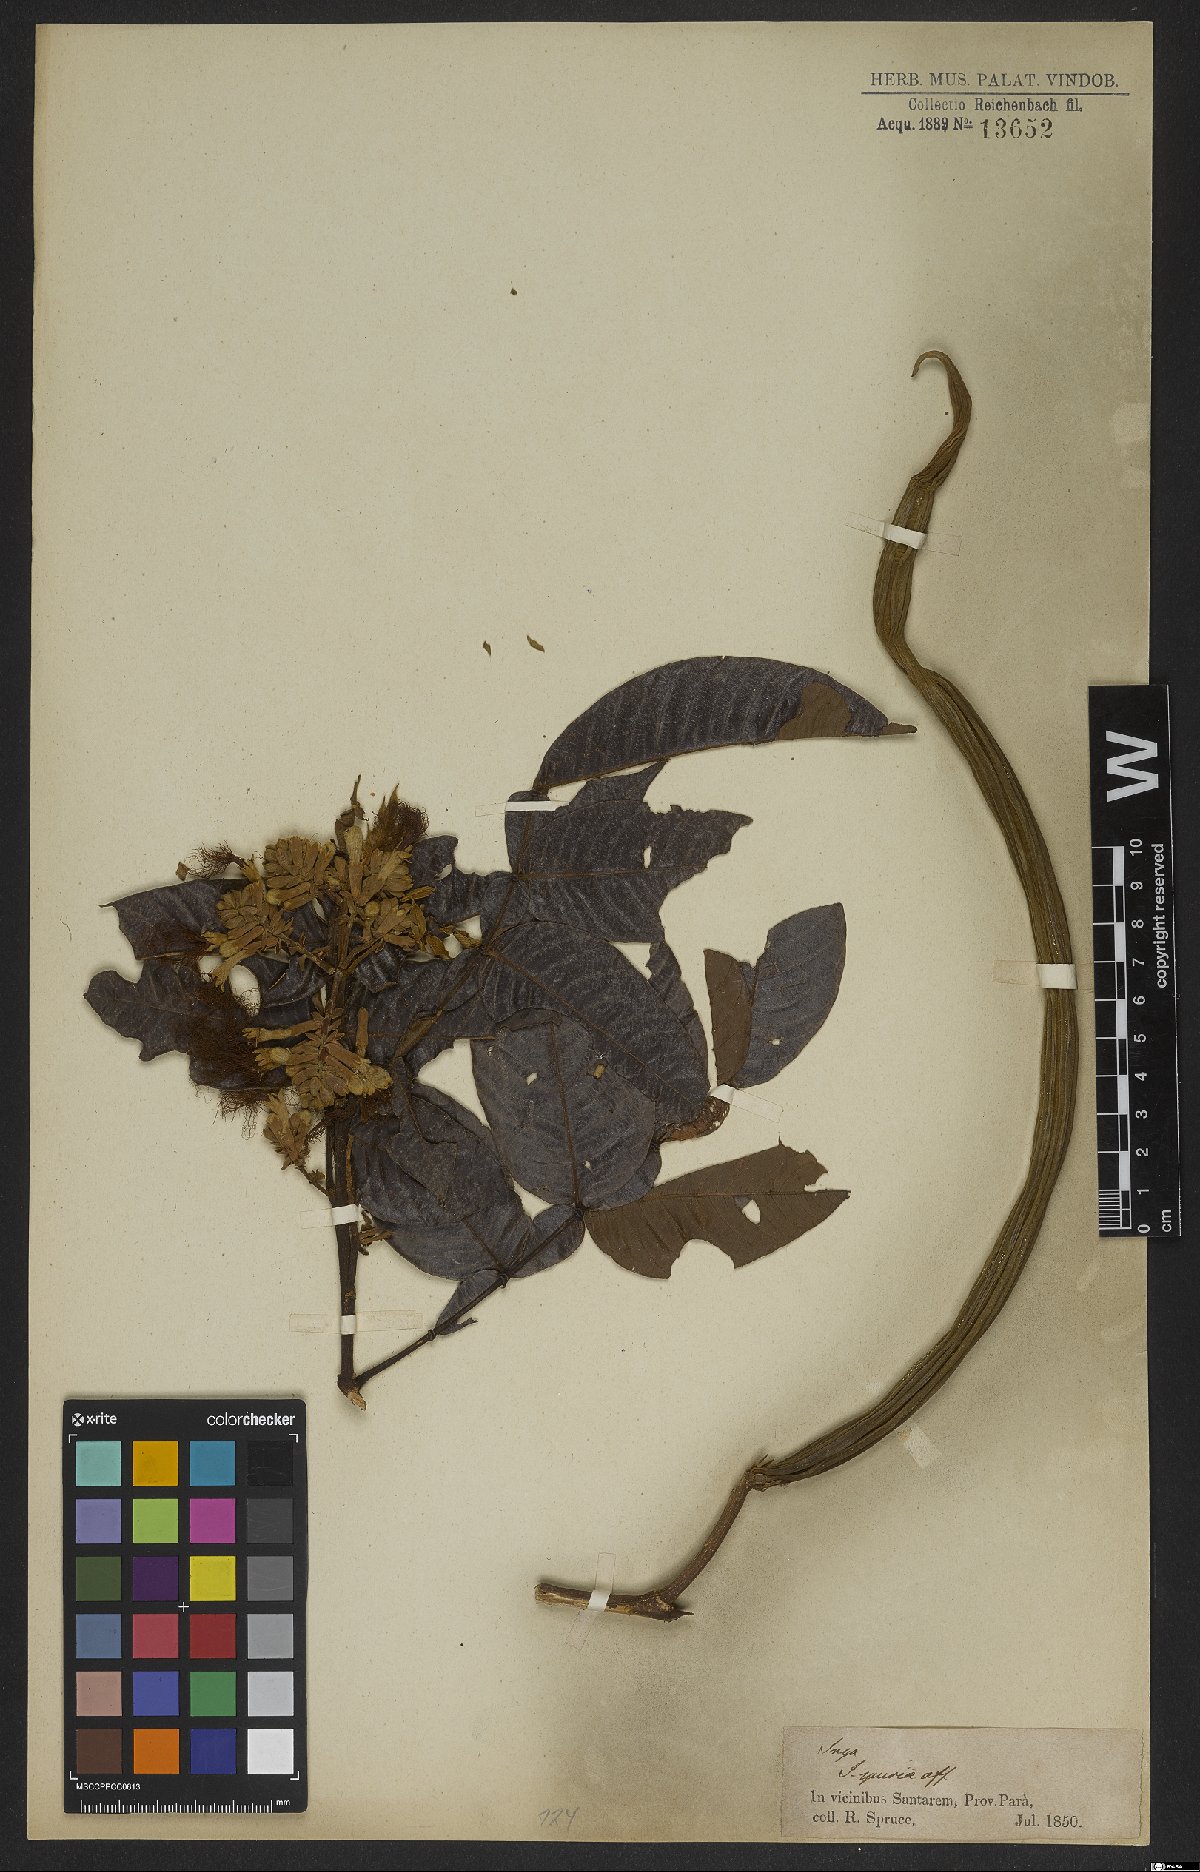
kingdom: Plantae
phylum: Tracheophyta
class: Magnoliopsida
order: Fabales
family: Fabaceae
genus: Inga
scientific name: Inga vera
